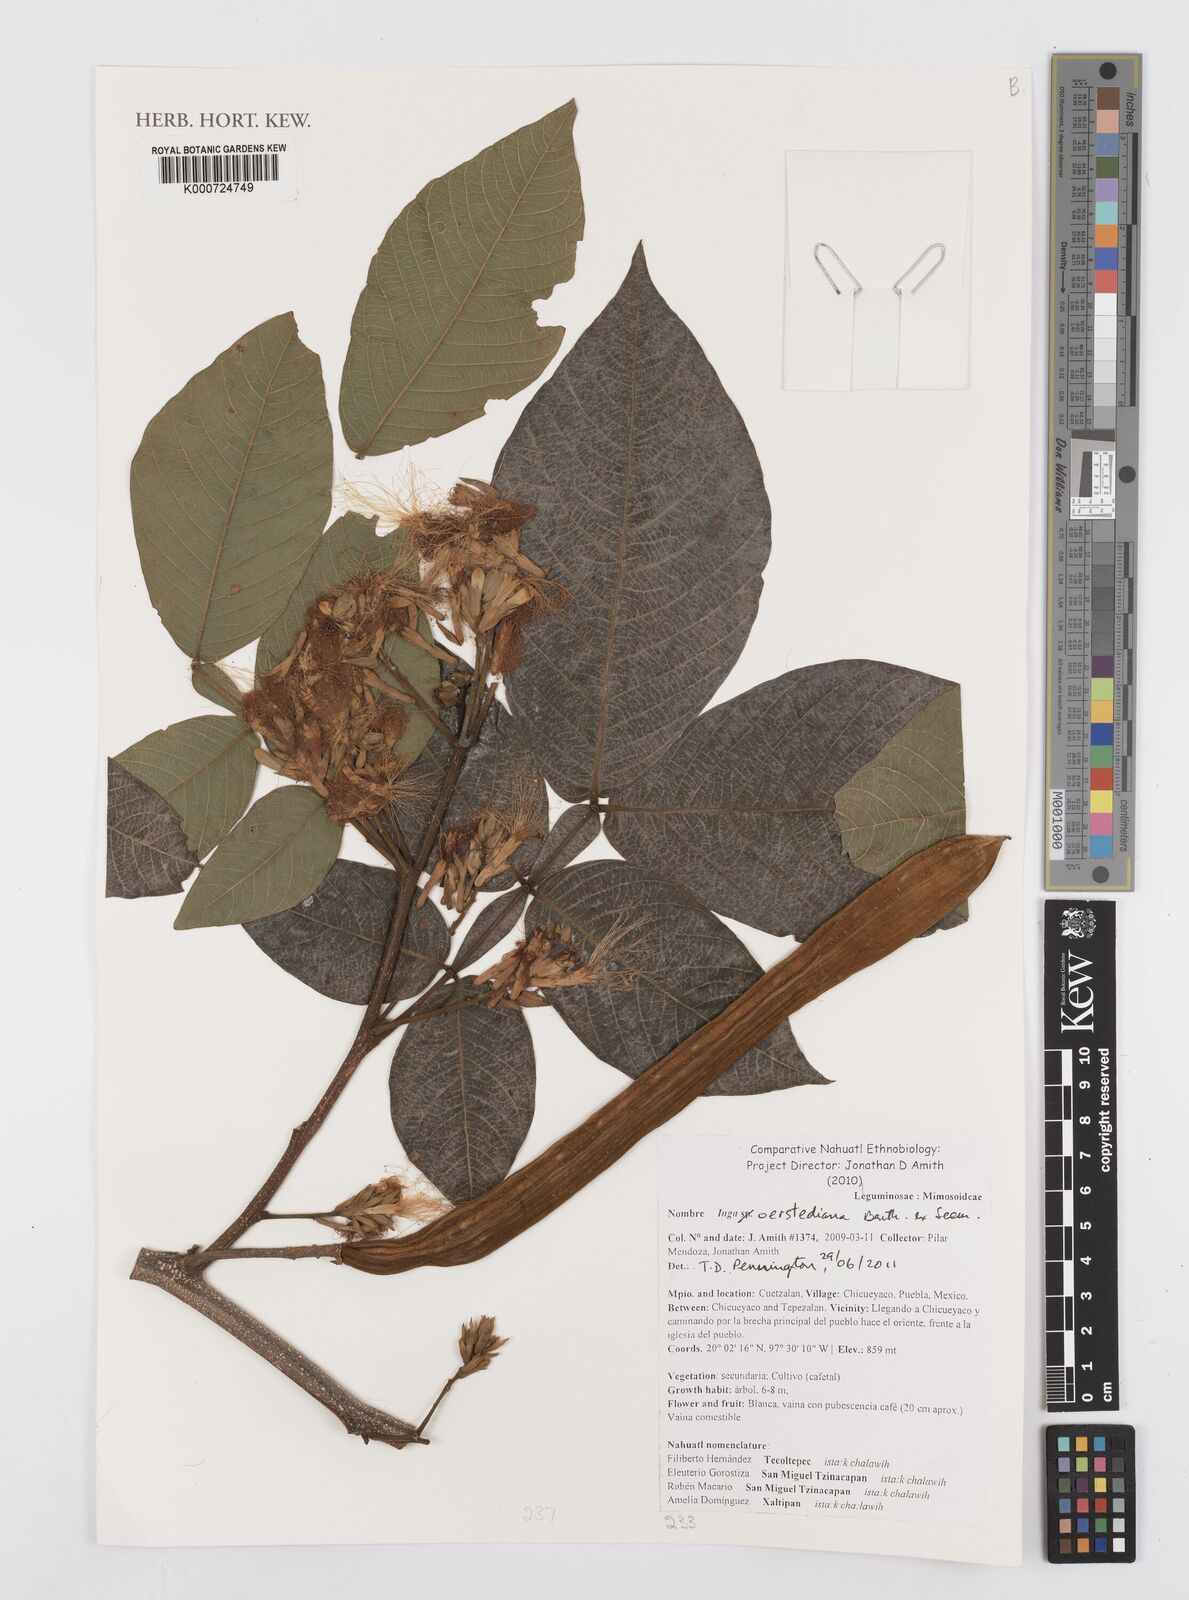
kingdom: Plantae
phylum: Tracheophyta
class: Magnoliopsida
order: Fabales
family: Fabaceae
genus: Inga
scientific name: Inga oerstediana
